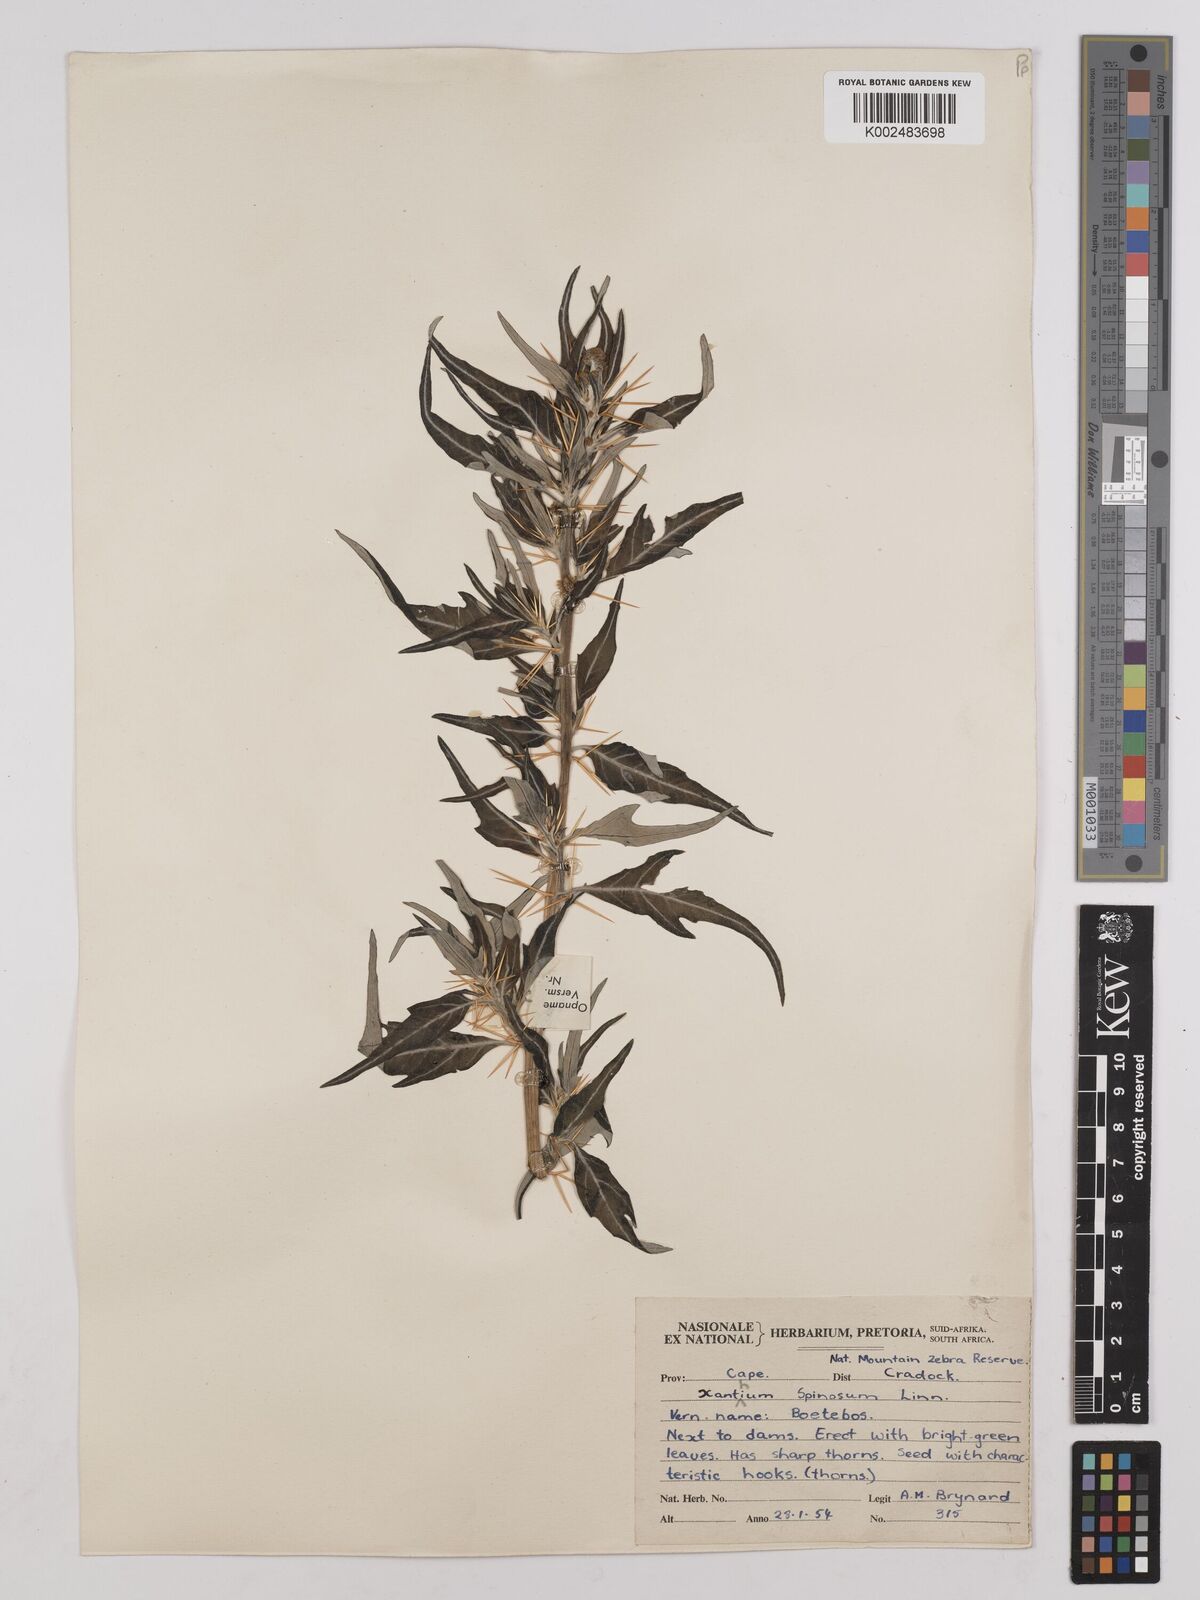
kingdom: Plantae
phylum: Tracheophyta
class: Magnoliopsida
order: Asterales
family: Asteraceae
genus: Xanthium
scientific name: Xanthium spinosum
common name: Spiny cocklebur
